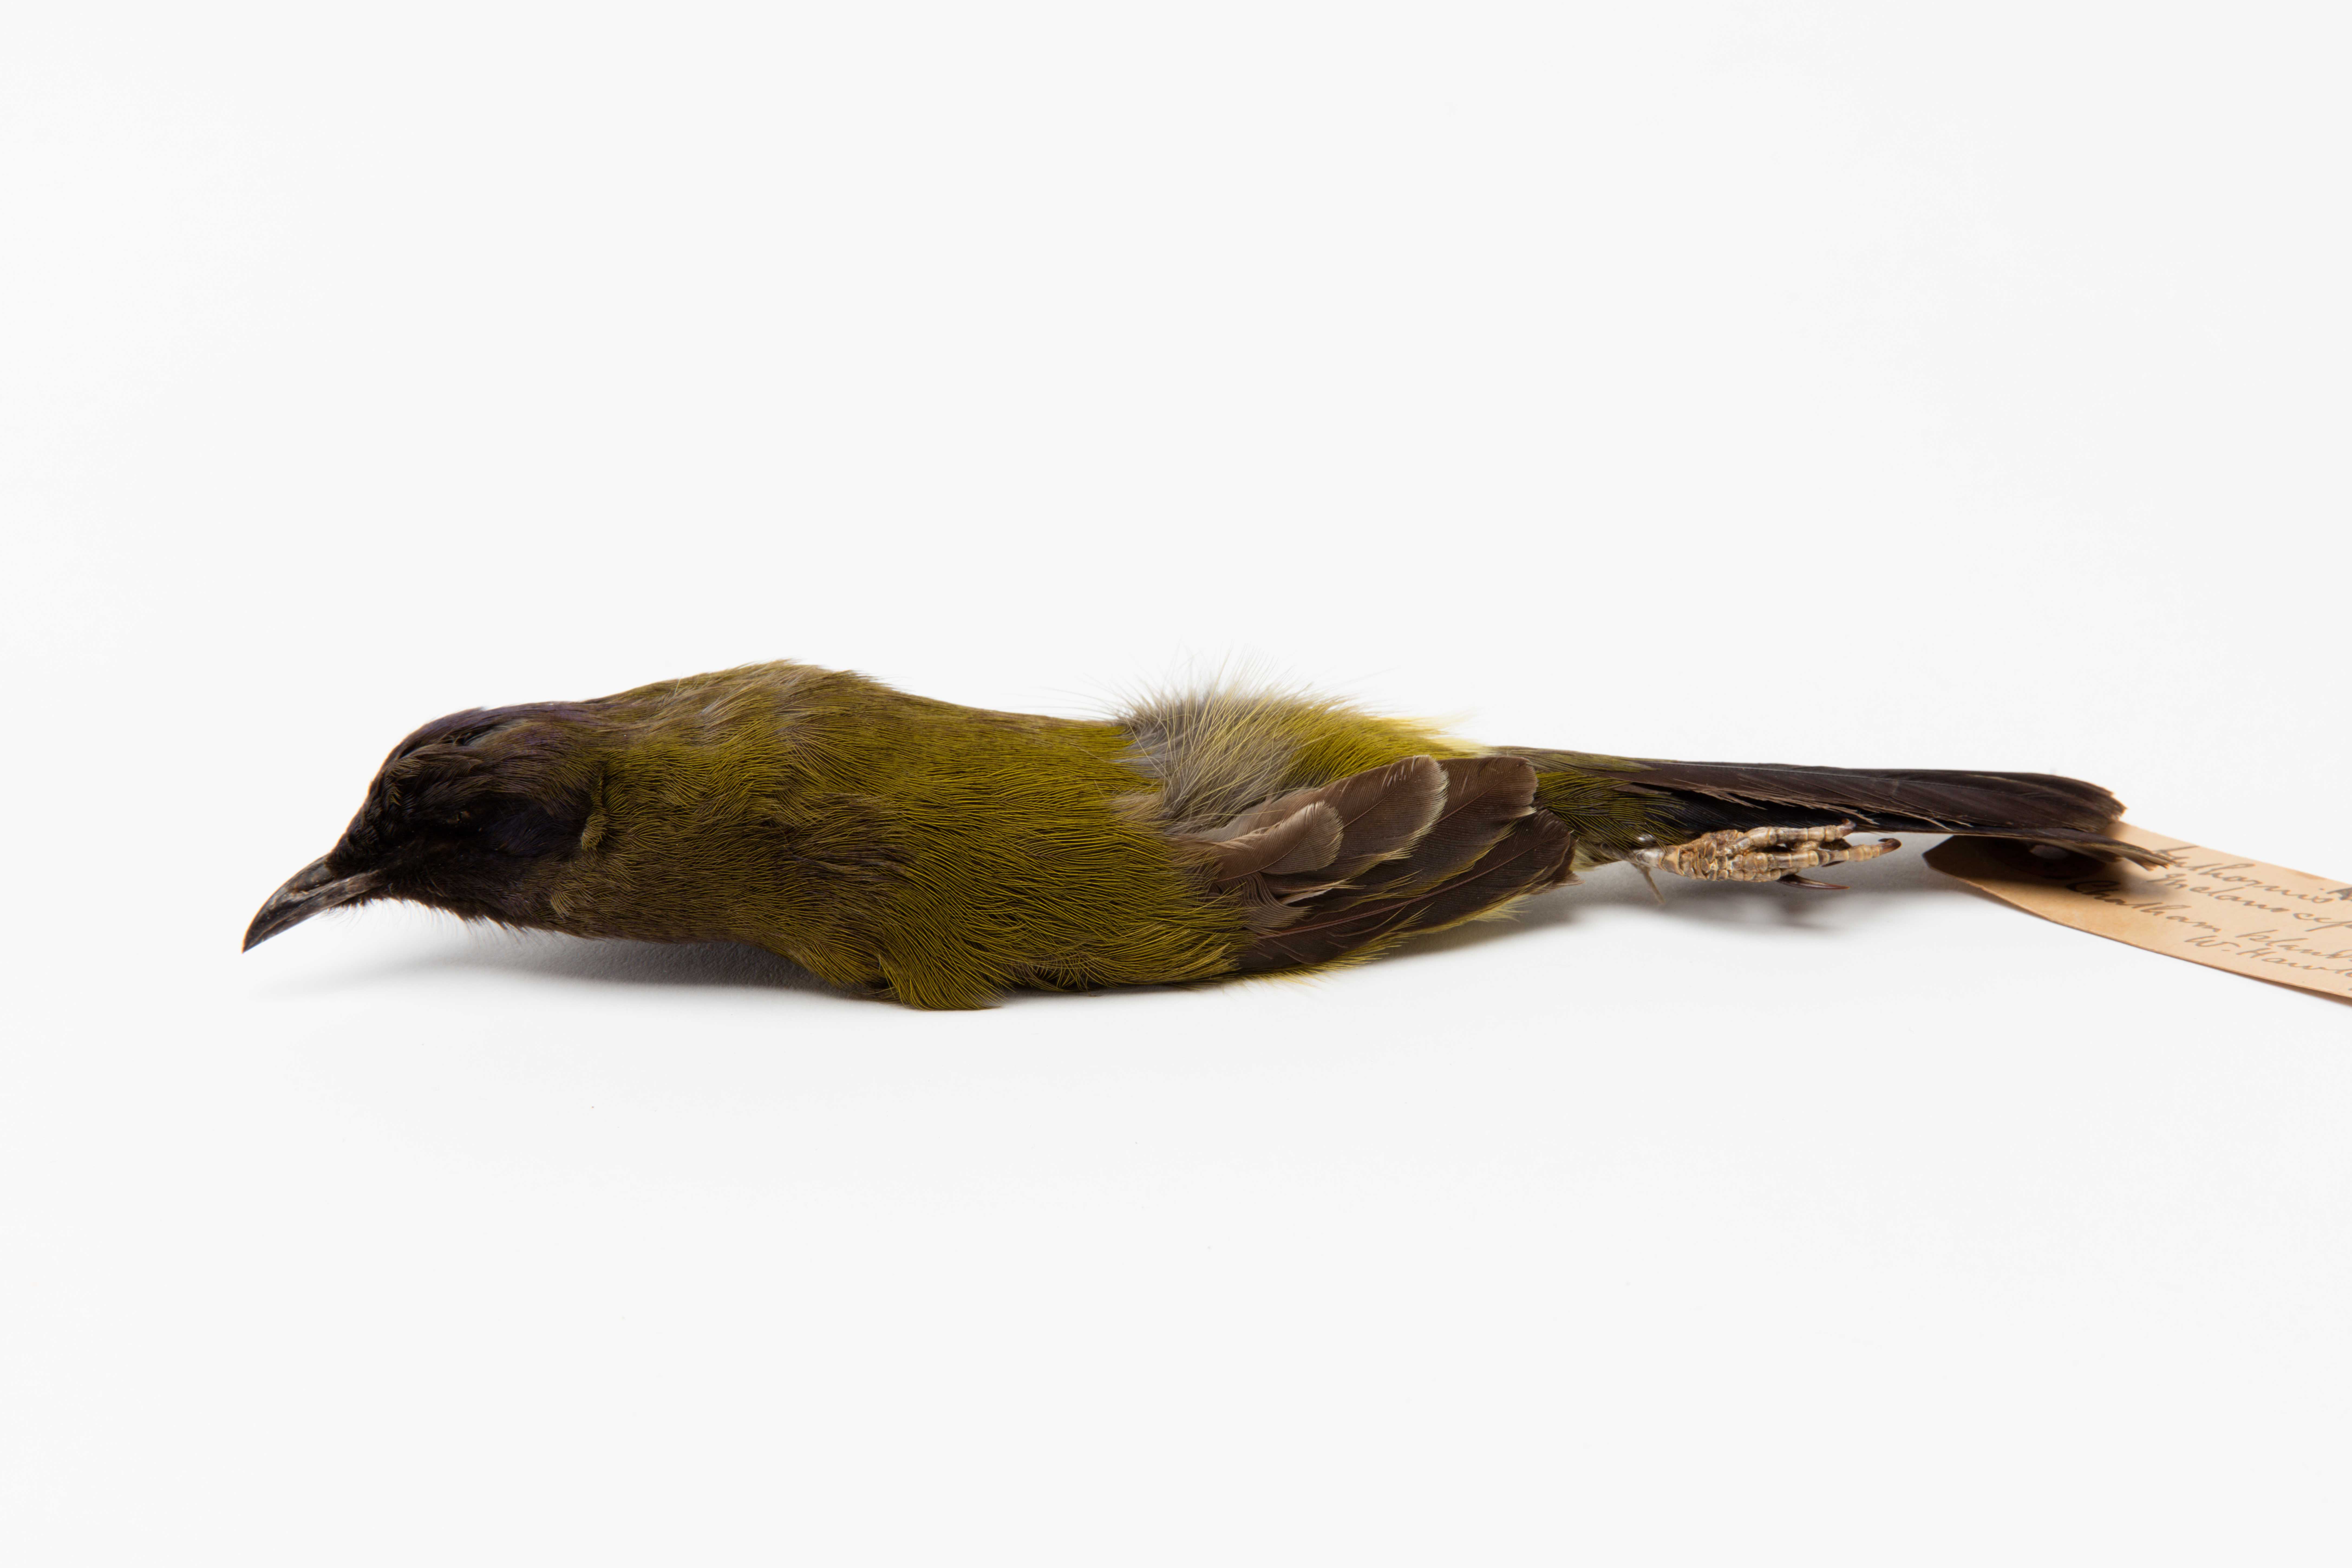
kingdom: Animalia
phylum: Chordata
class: Aves
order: Passeriformes
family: Meliphagidae
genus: Anthornis
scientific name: Anthornis melanocephala
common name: Chatham bellbird
